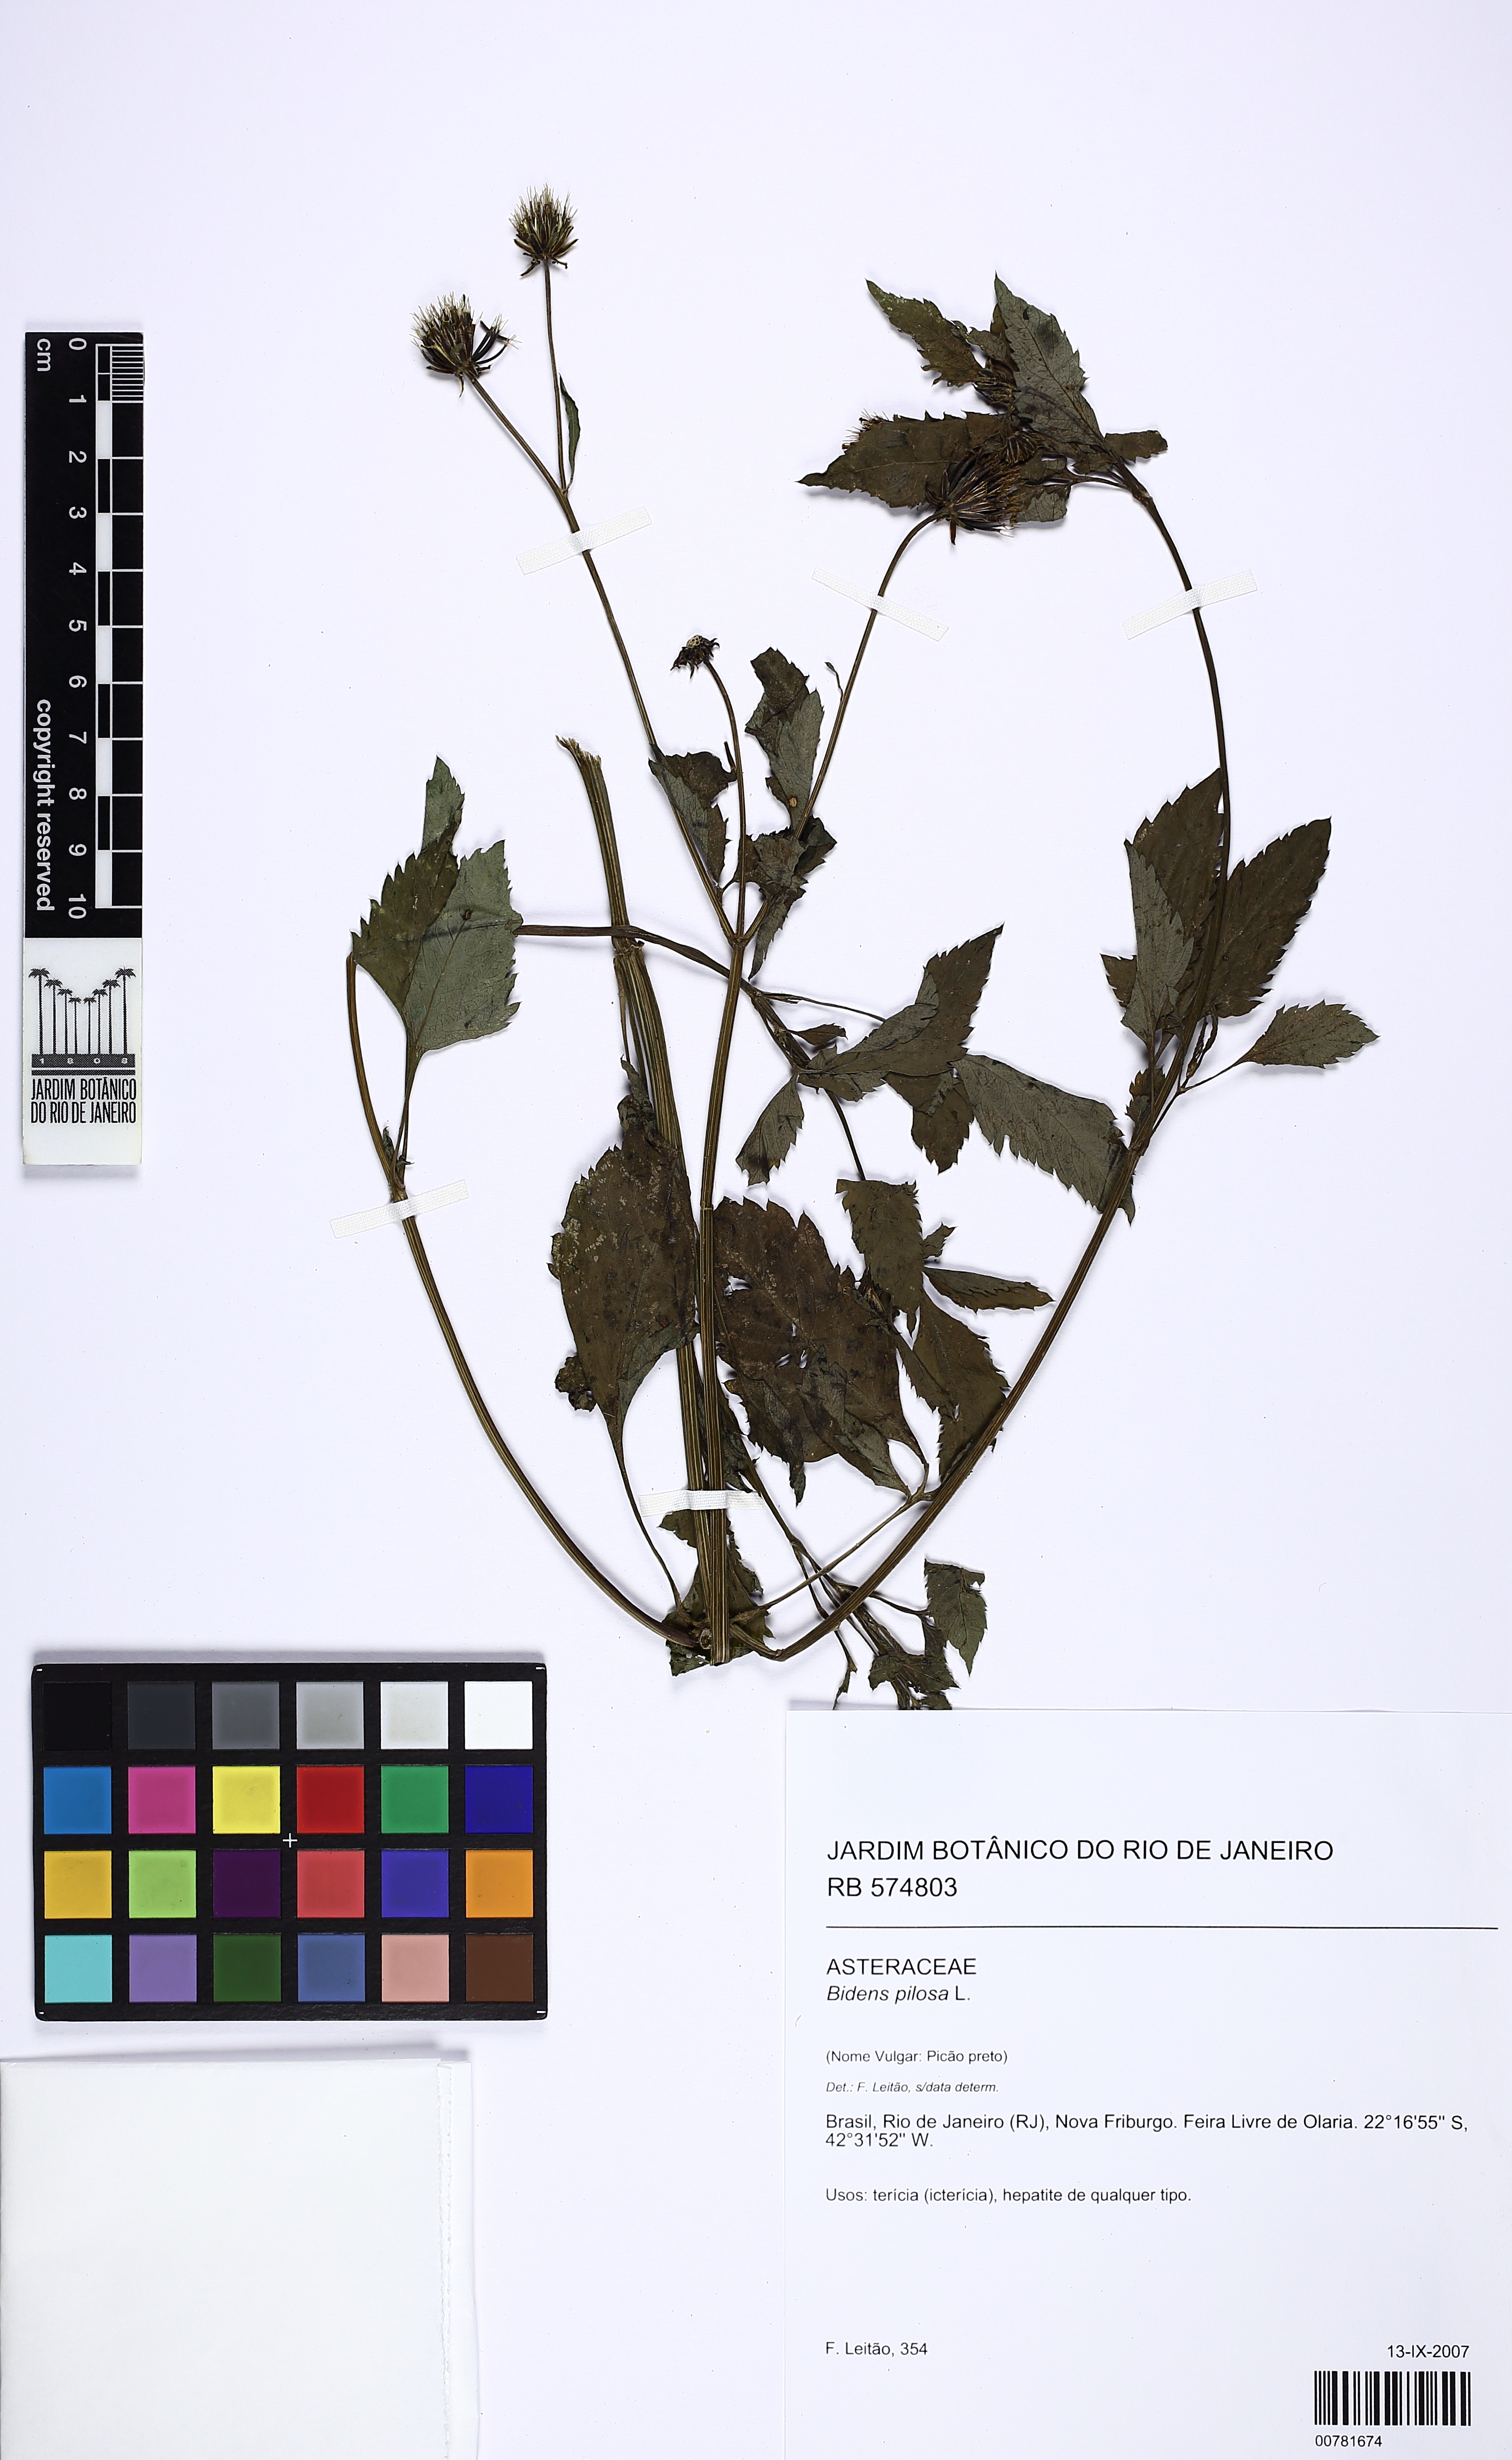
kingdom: Plantae
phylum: Tracheophyta
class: Magnoliopsida
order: Asterales
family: Asteraceae
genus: Bidens
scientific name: Bidens pilosa
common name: Black-jack
